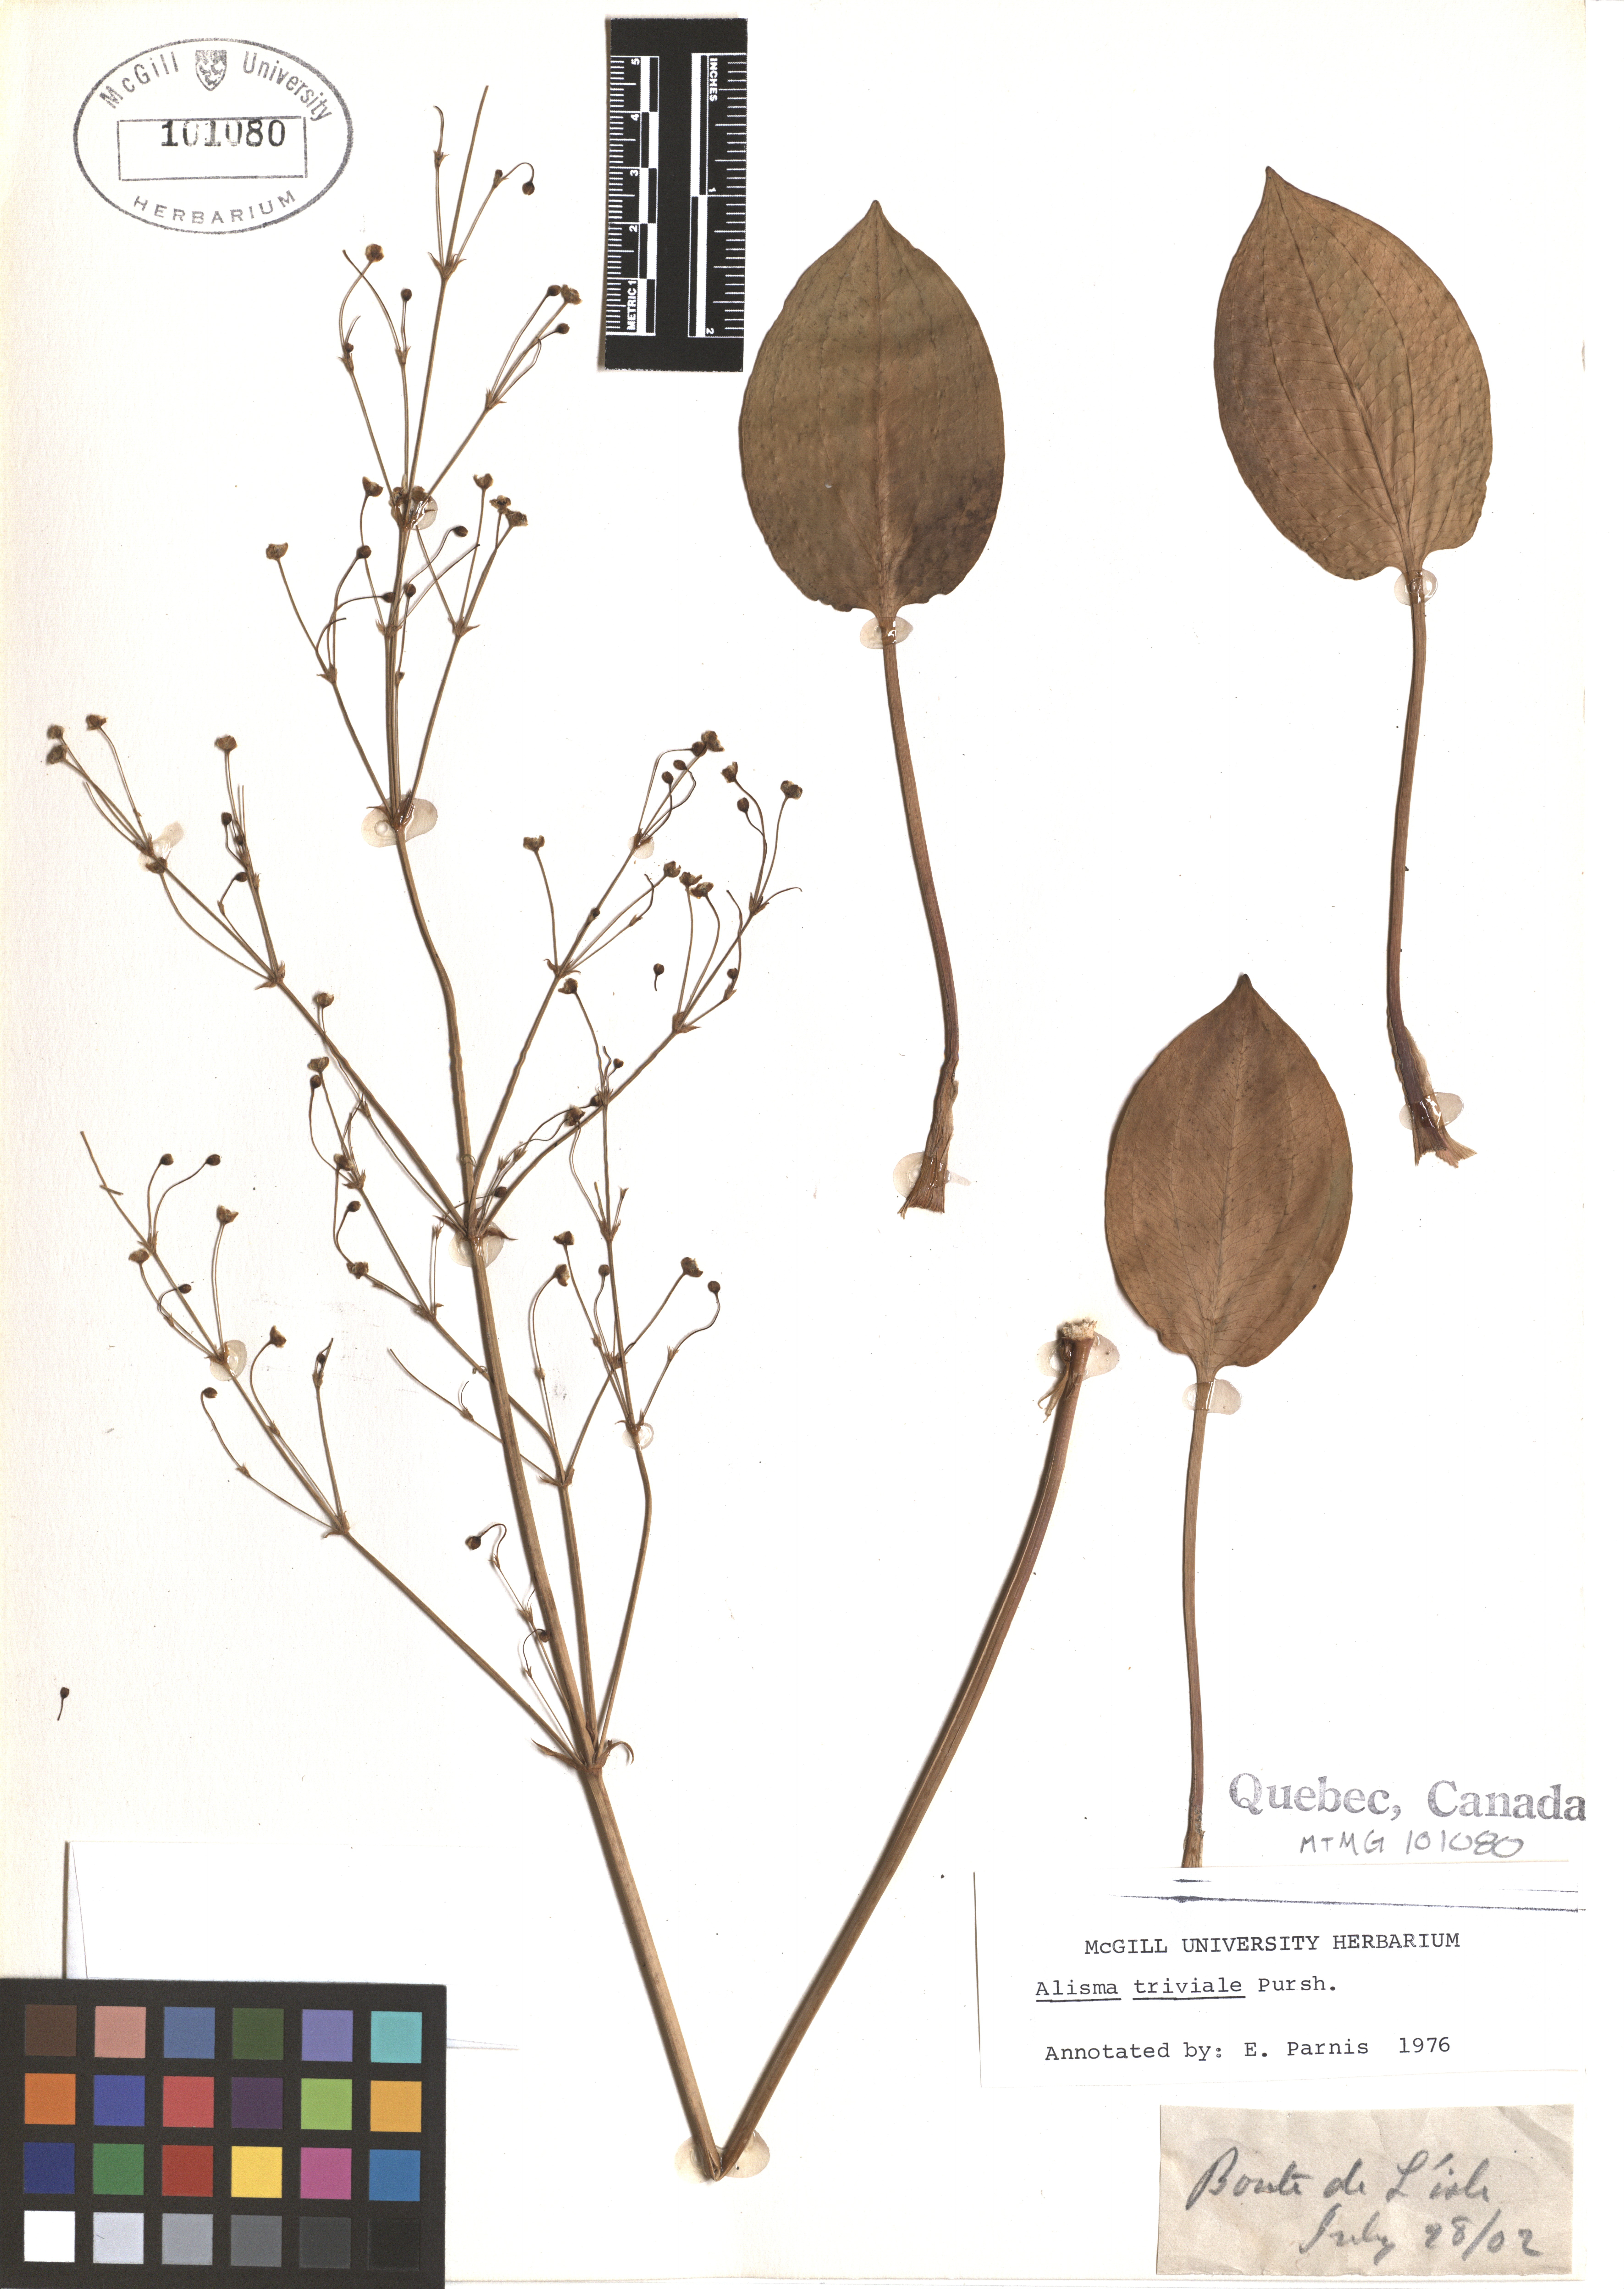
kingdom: Plantae
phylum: Tracheophyta
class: Liliopsida
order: Alismatales
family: Alismataceae
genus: Alisma
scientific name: Alisma triviale
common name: Northern water-plantain
